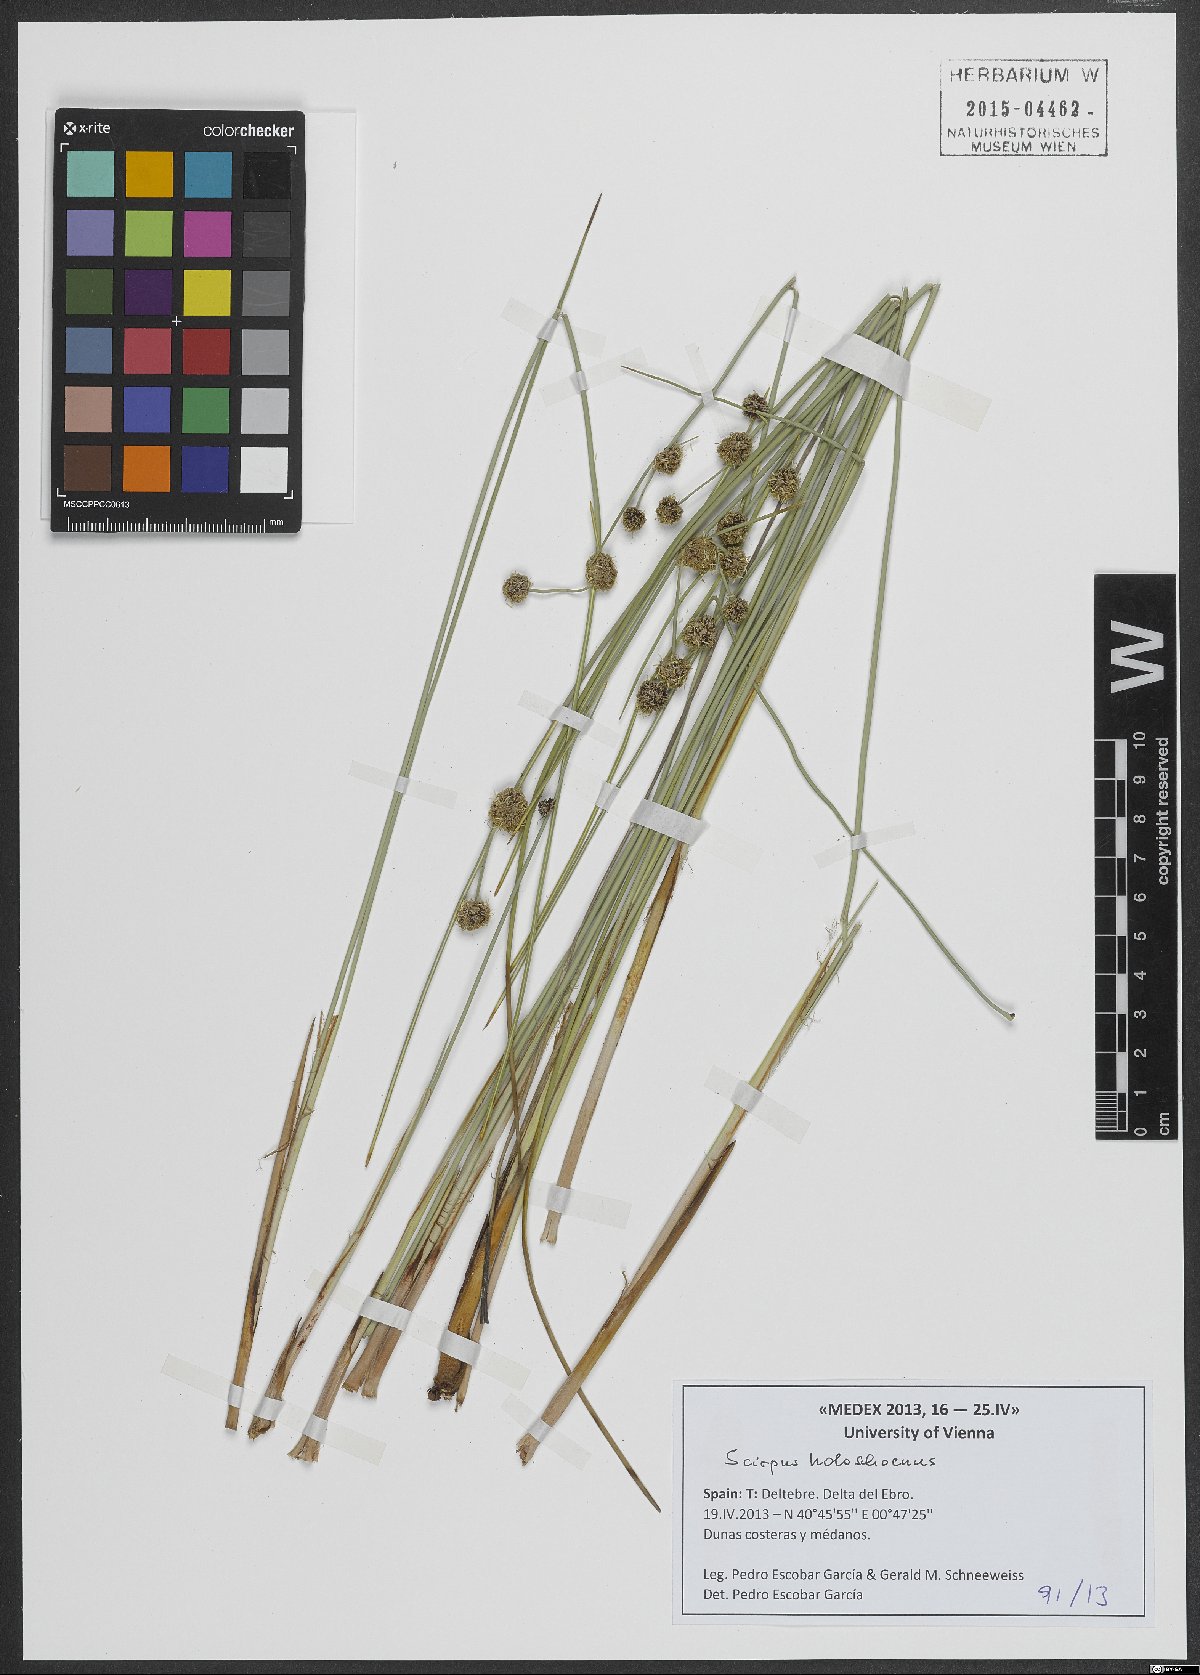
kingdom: Plantae
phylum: Tracheophyta
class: Liliopsida
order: Poales
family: Cyperaceae
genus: Scirpoides
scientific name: Scirpoides holoschoenus
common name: Round-headed club-rush
